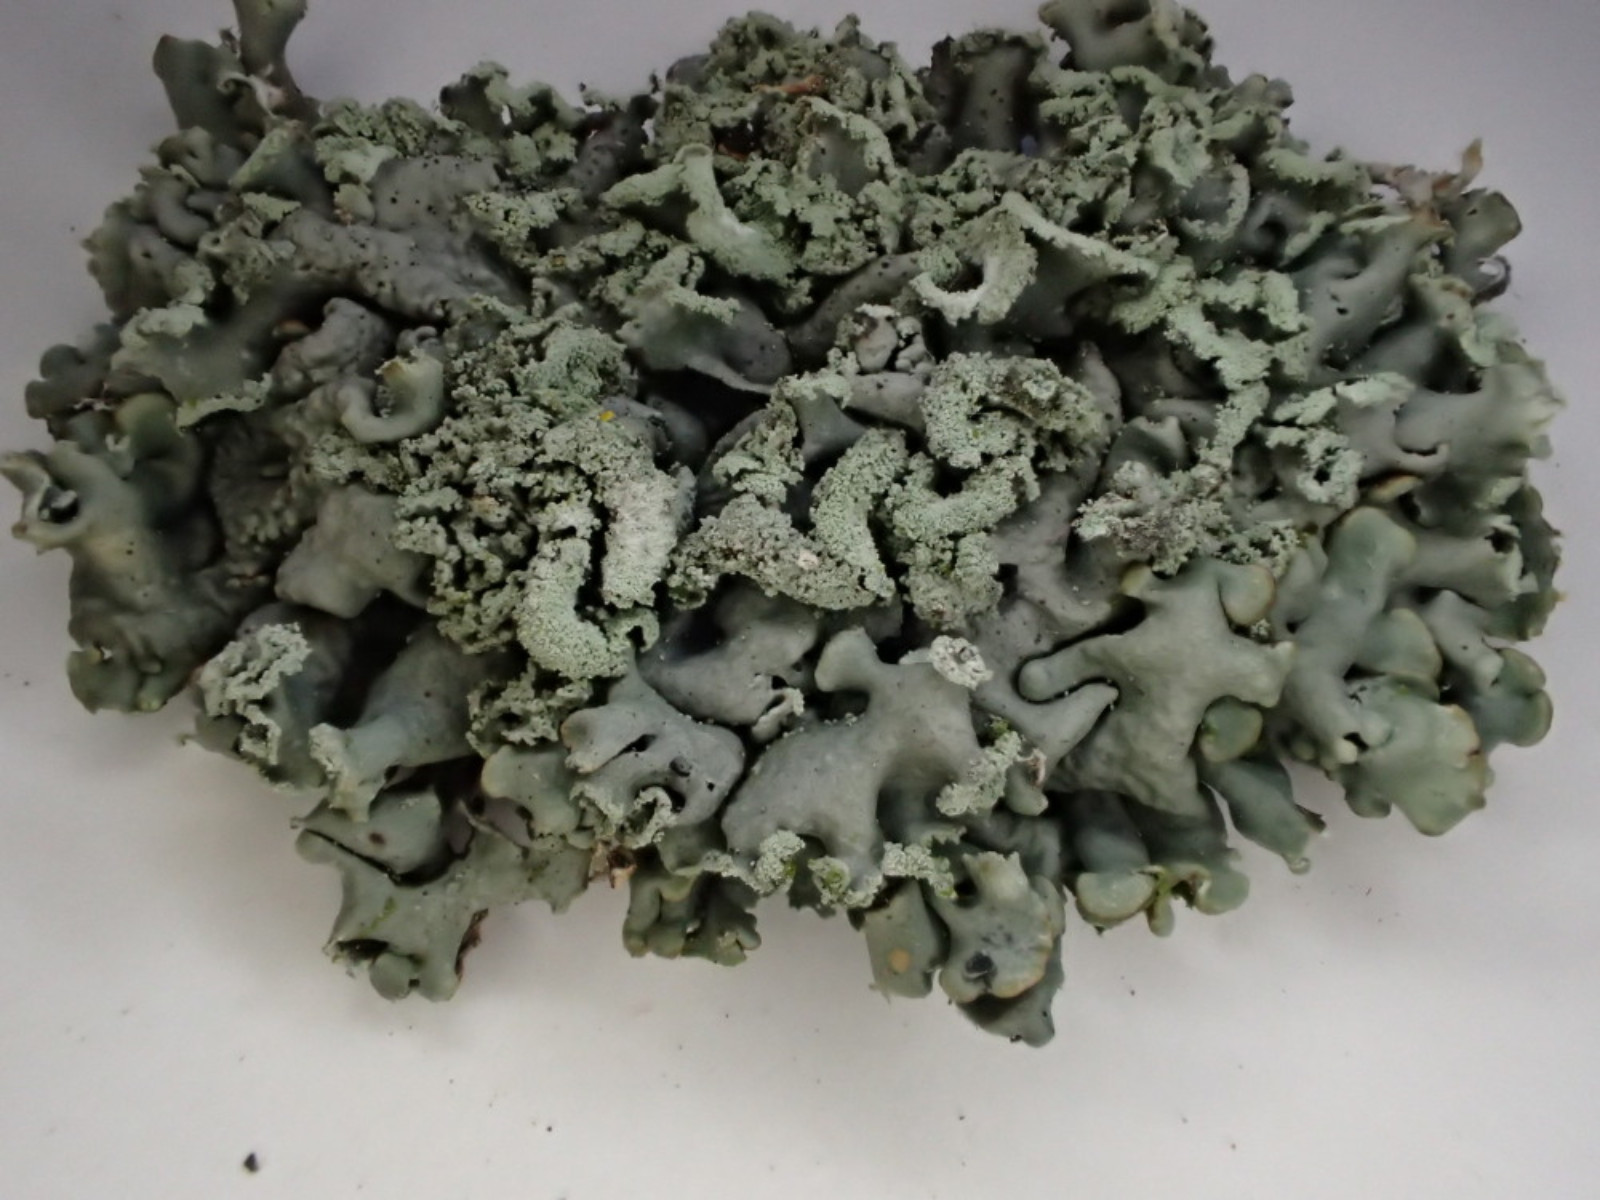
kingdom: Fungi
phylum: Ascomycota
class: Lecanoromycetes
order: Lecanorales
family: Parmeliaceae
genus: Hypogymnia
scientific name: Hypogymnia physodes
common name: almindelig kvistlav
